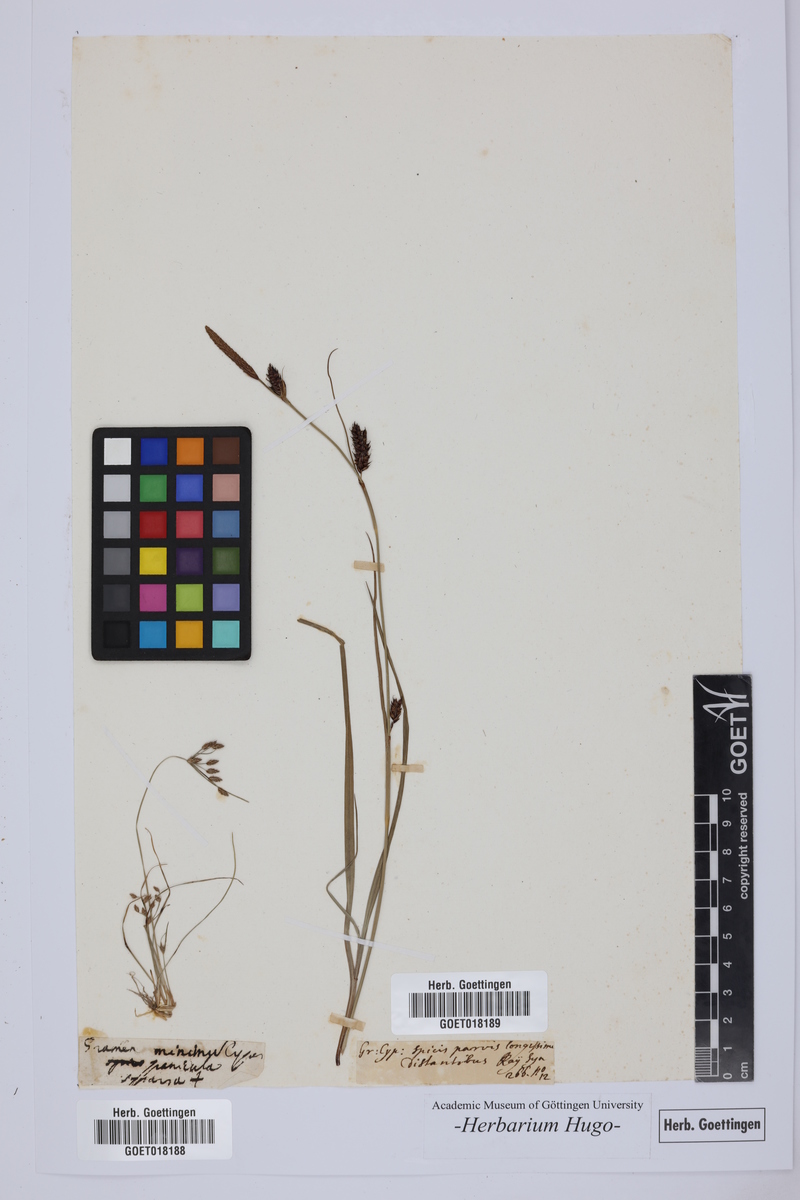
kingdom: Plantae
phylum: Tracheophyta
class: Liliopsida
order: Poales
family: Poaceae
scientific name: Poaceae
